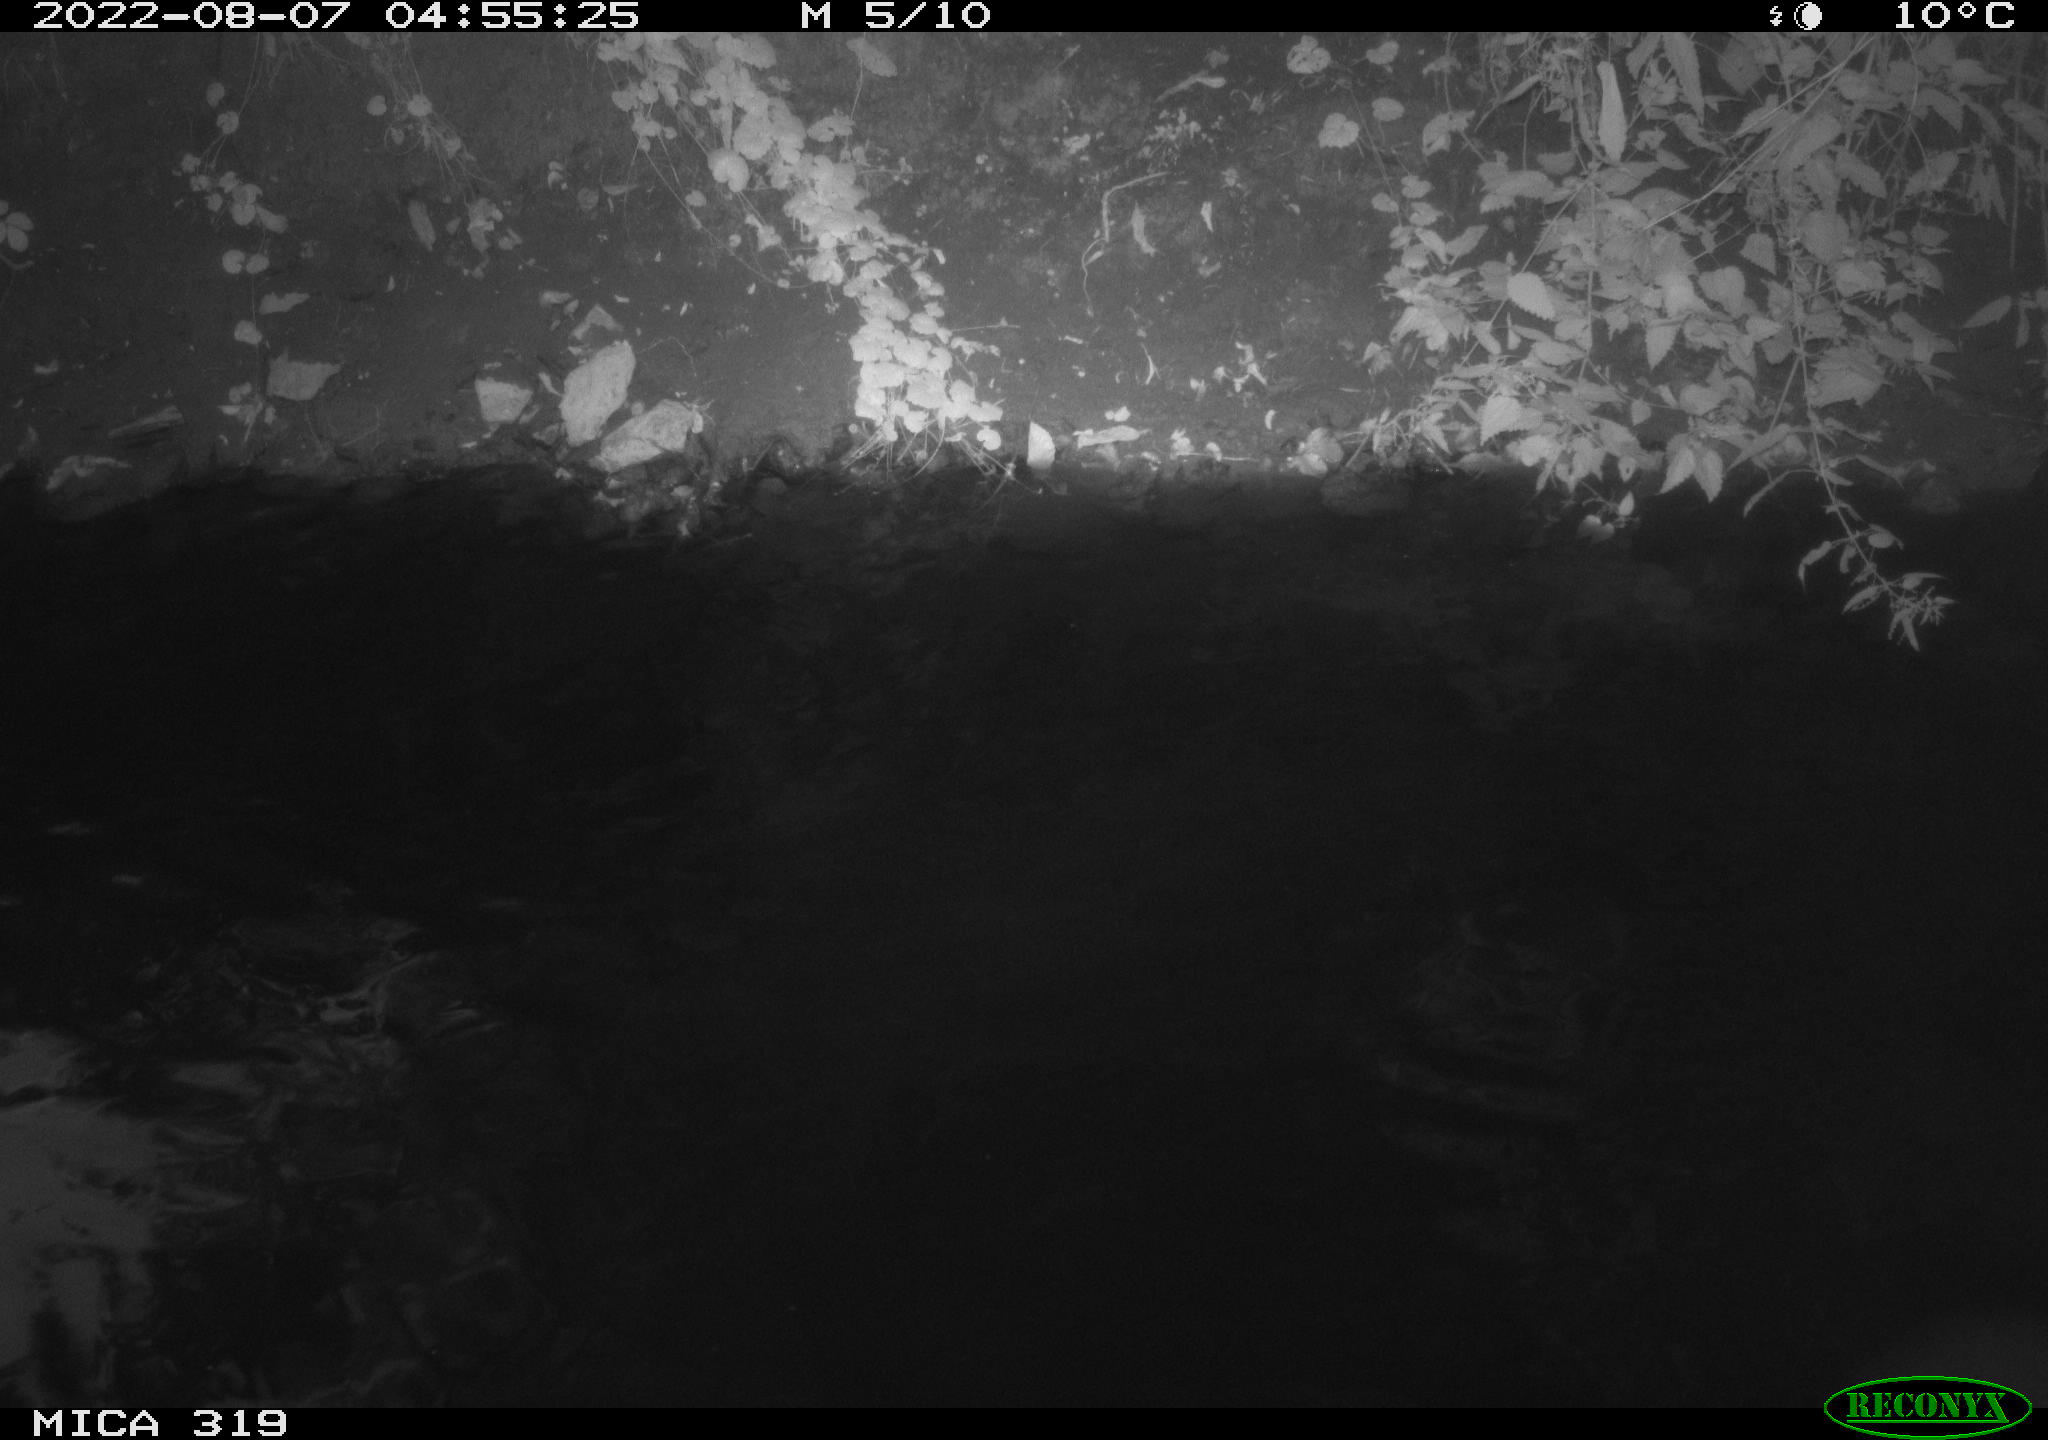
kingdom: Animalia
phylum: Chordata
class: Aves
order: Anseriformes
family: Anatidae
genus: Anas
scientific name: Anas
